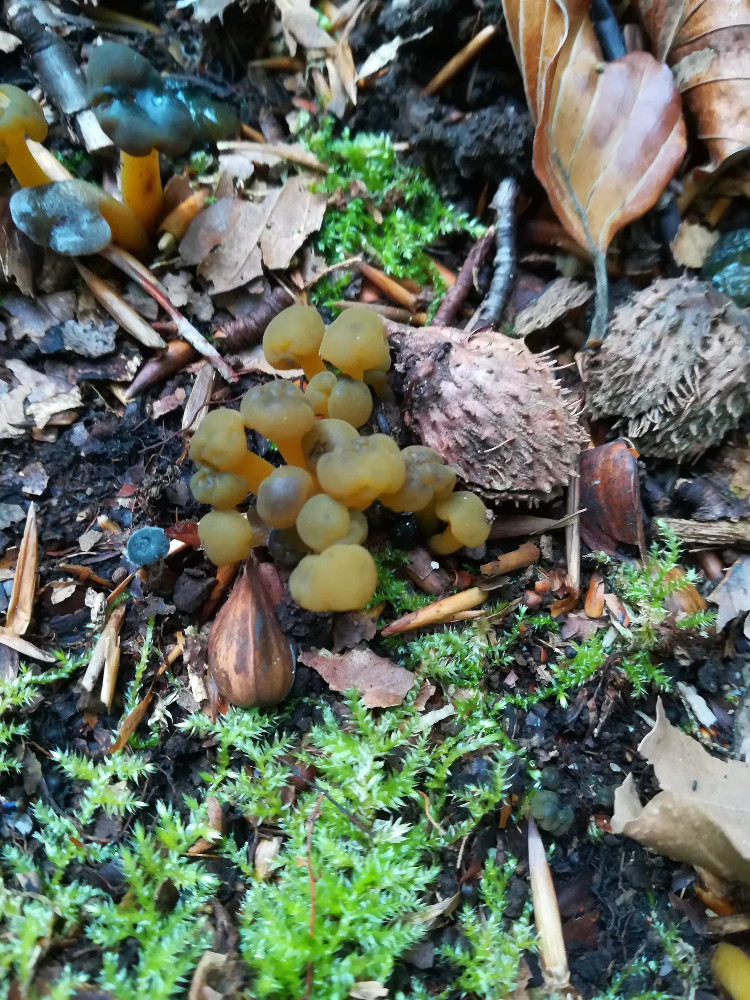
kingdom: Fungi
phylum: Ascomycota
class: Leotiomycetes
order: Leotiales
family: Leotiaceae
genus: Leotia
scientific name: Leotia lubrica
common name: ravsvamp
